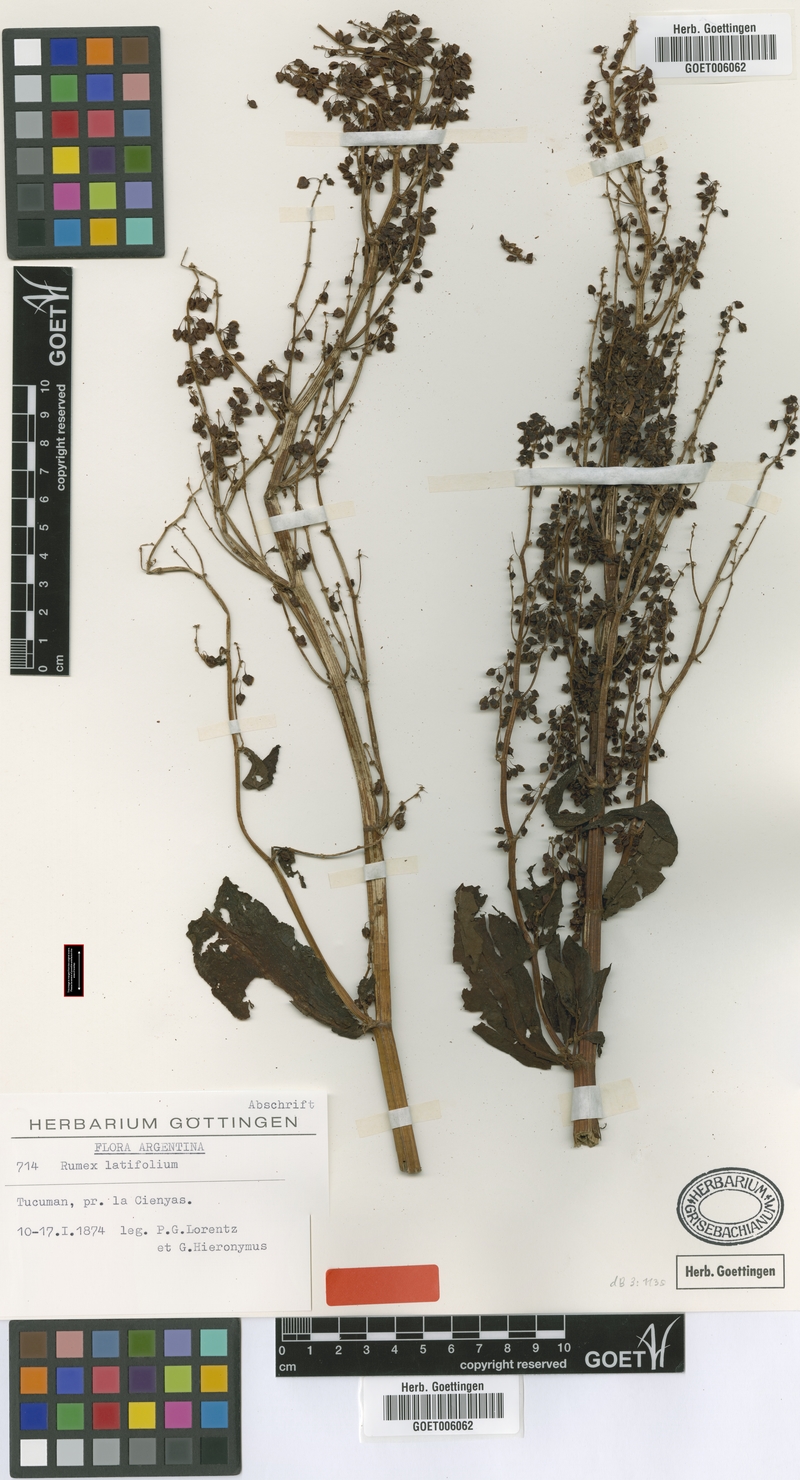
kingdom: Plantae
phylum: Tracheophyta
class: Magnoliopsida
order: Caryophyllales
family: Polygonaceae
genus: Rumex
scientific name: Rumex lorentzianus
